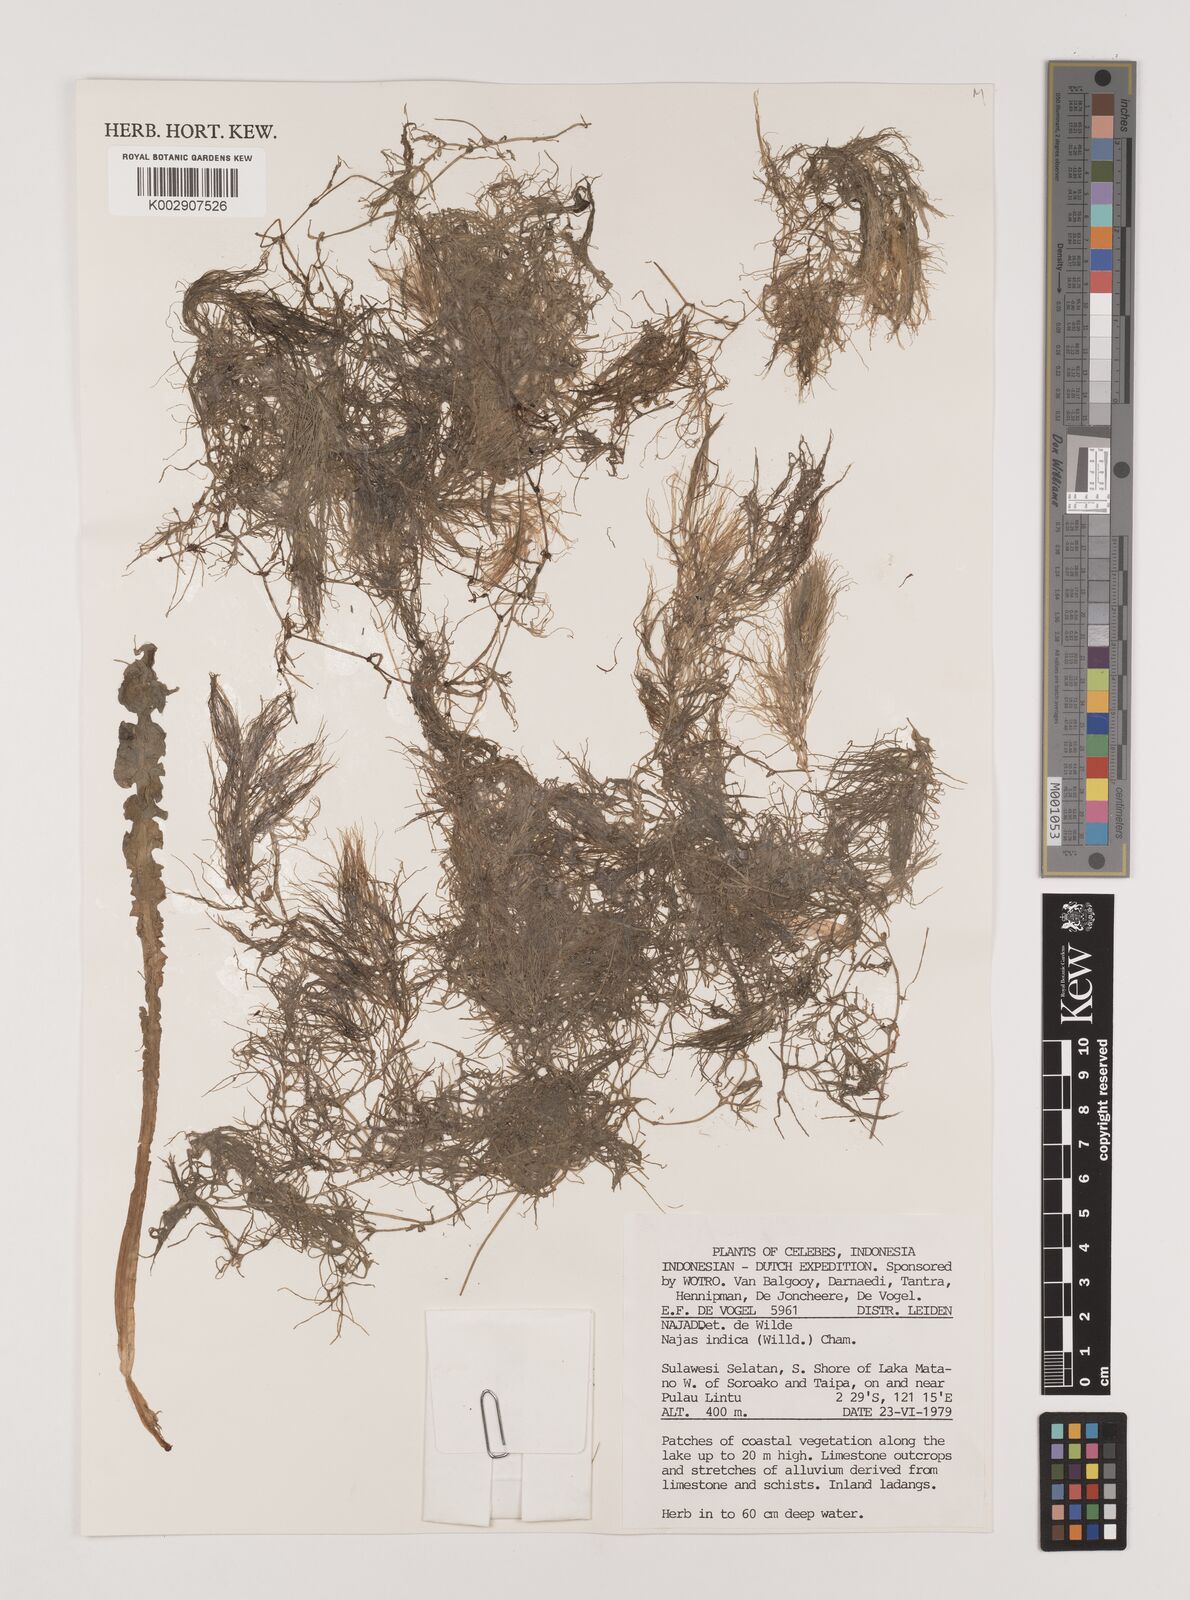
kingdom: Plantae
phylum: Tracheophyta
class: Liliopsida
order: Alismatales
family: Hydrocharitaceae
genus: Najas
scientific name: Najas indica
